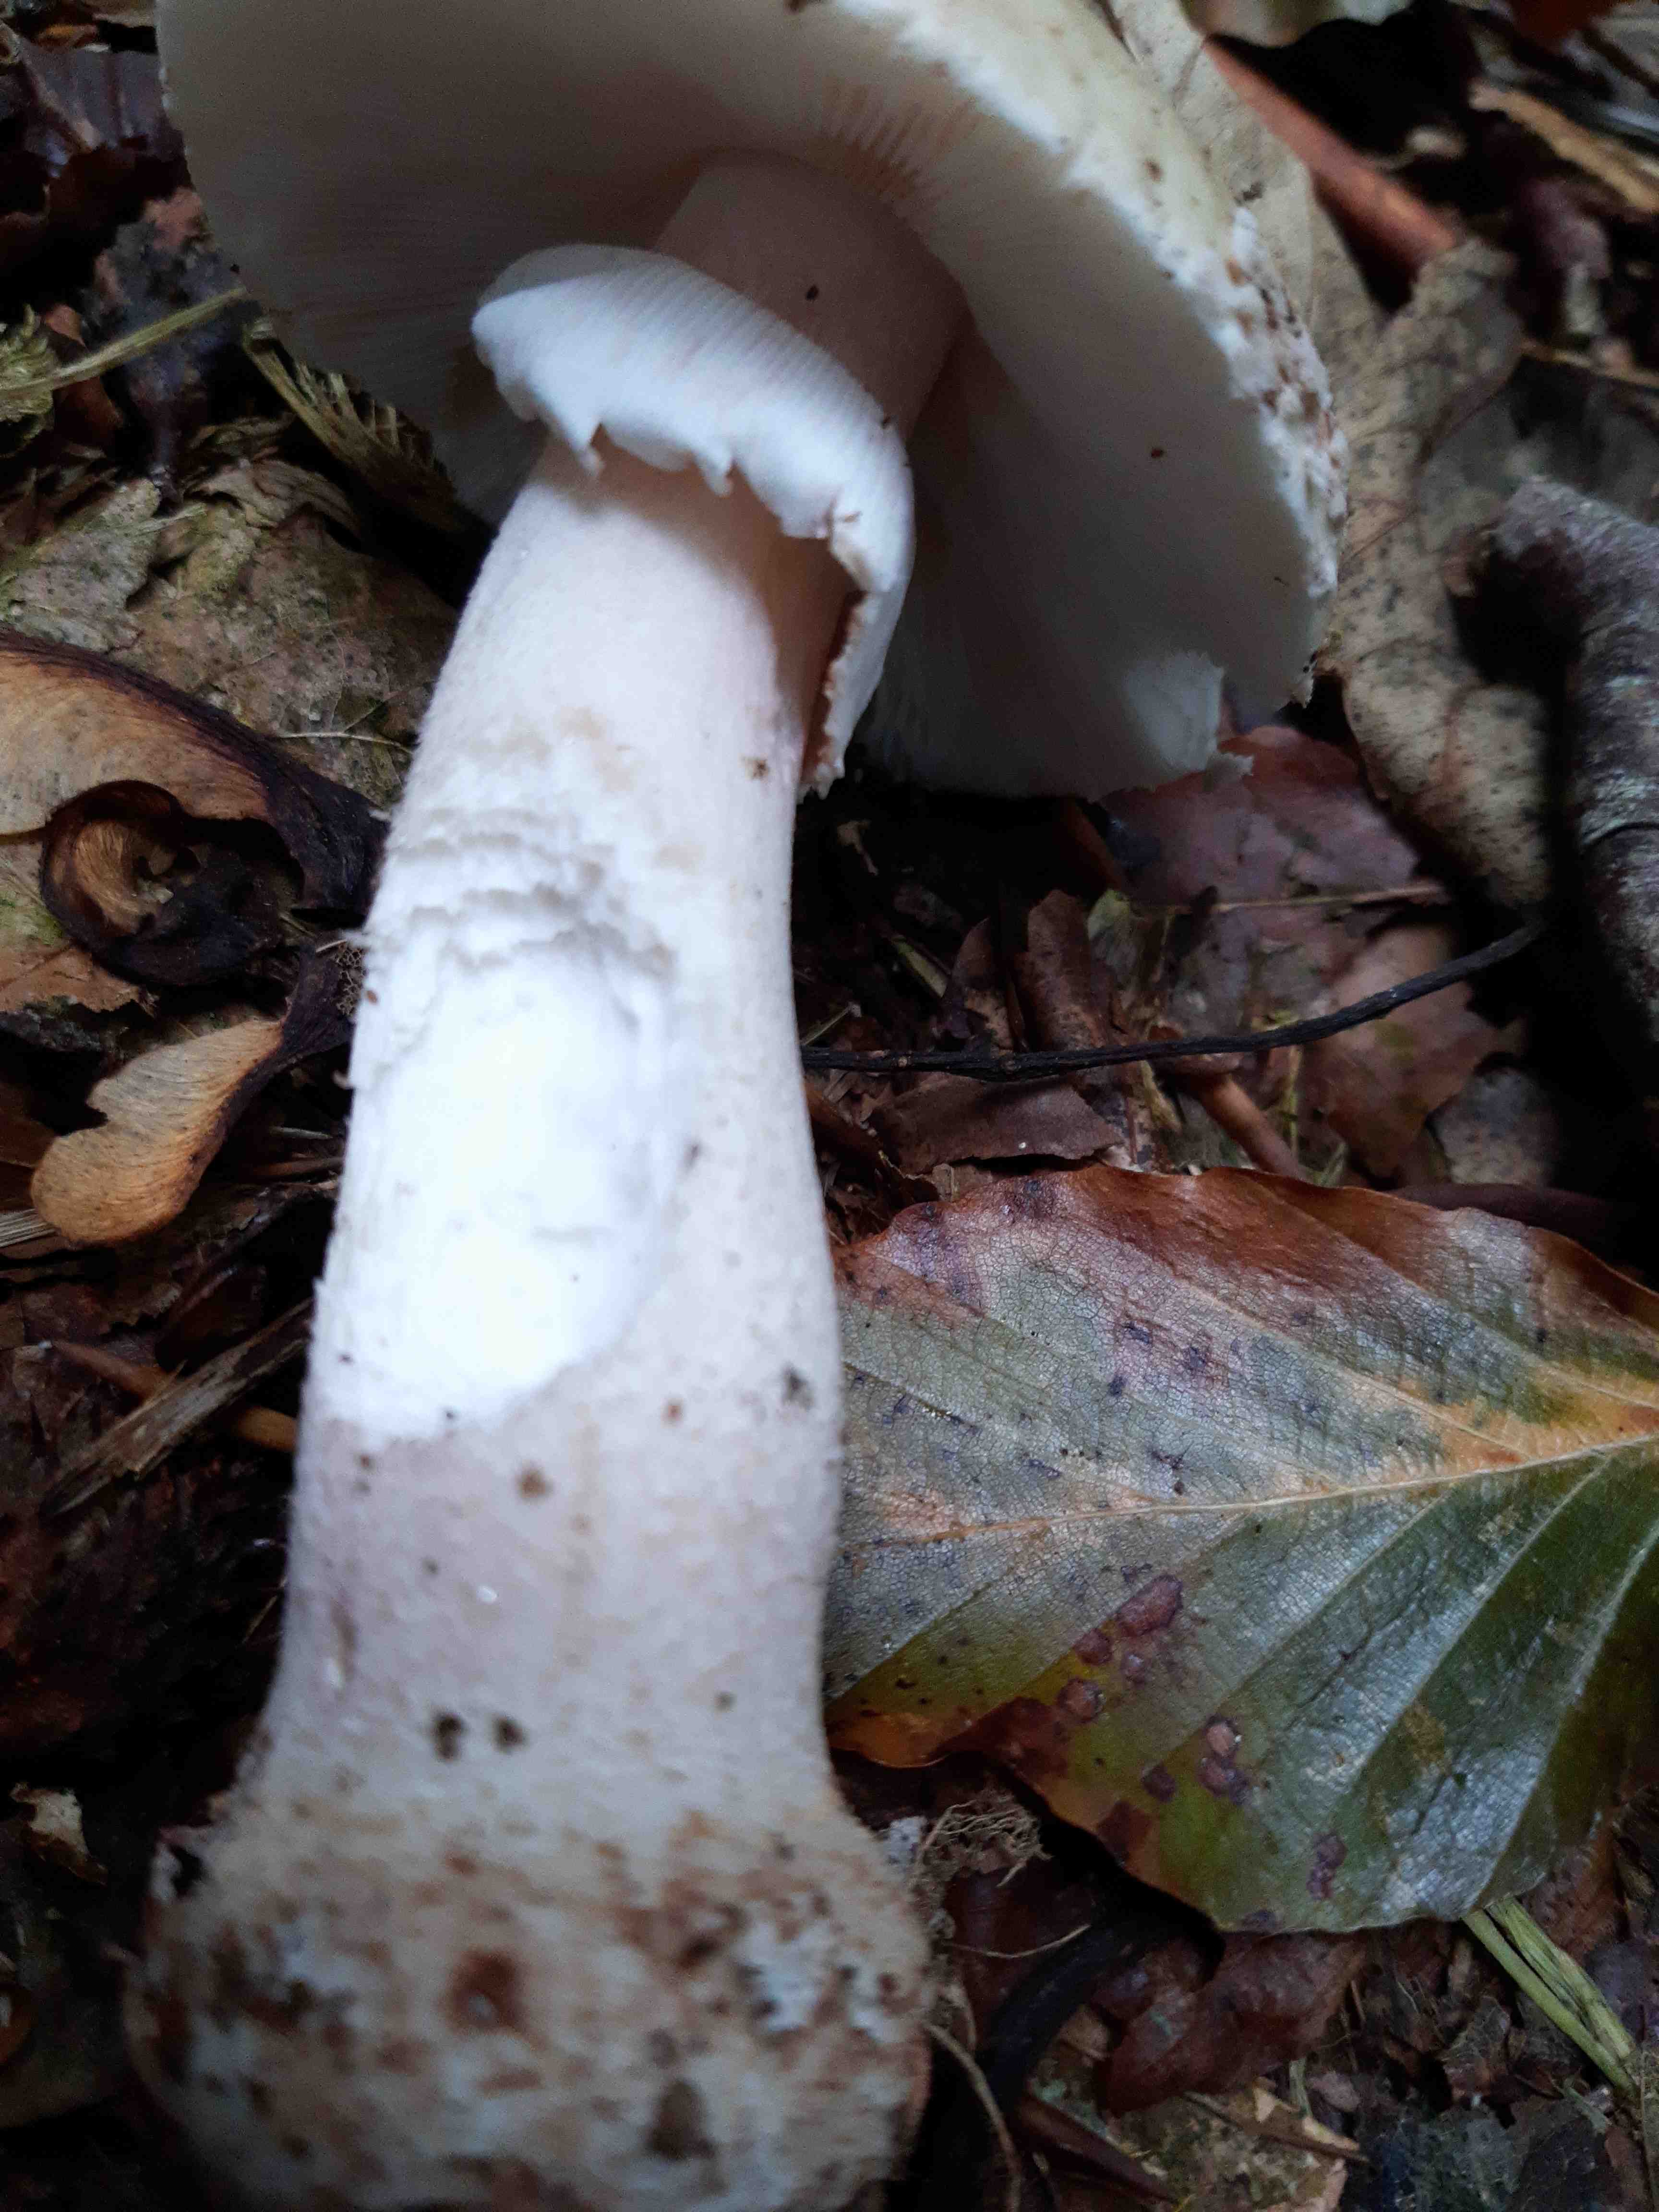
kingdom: Fungi
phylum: Basidiomycota
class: Agaricomycetes
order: Agaricales
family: Amanitaceae
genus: Amanita
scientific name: Amanita rubescens
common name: rødmende fluesvamp
